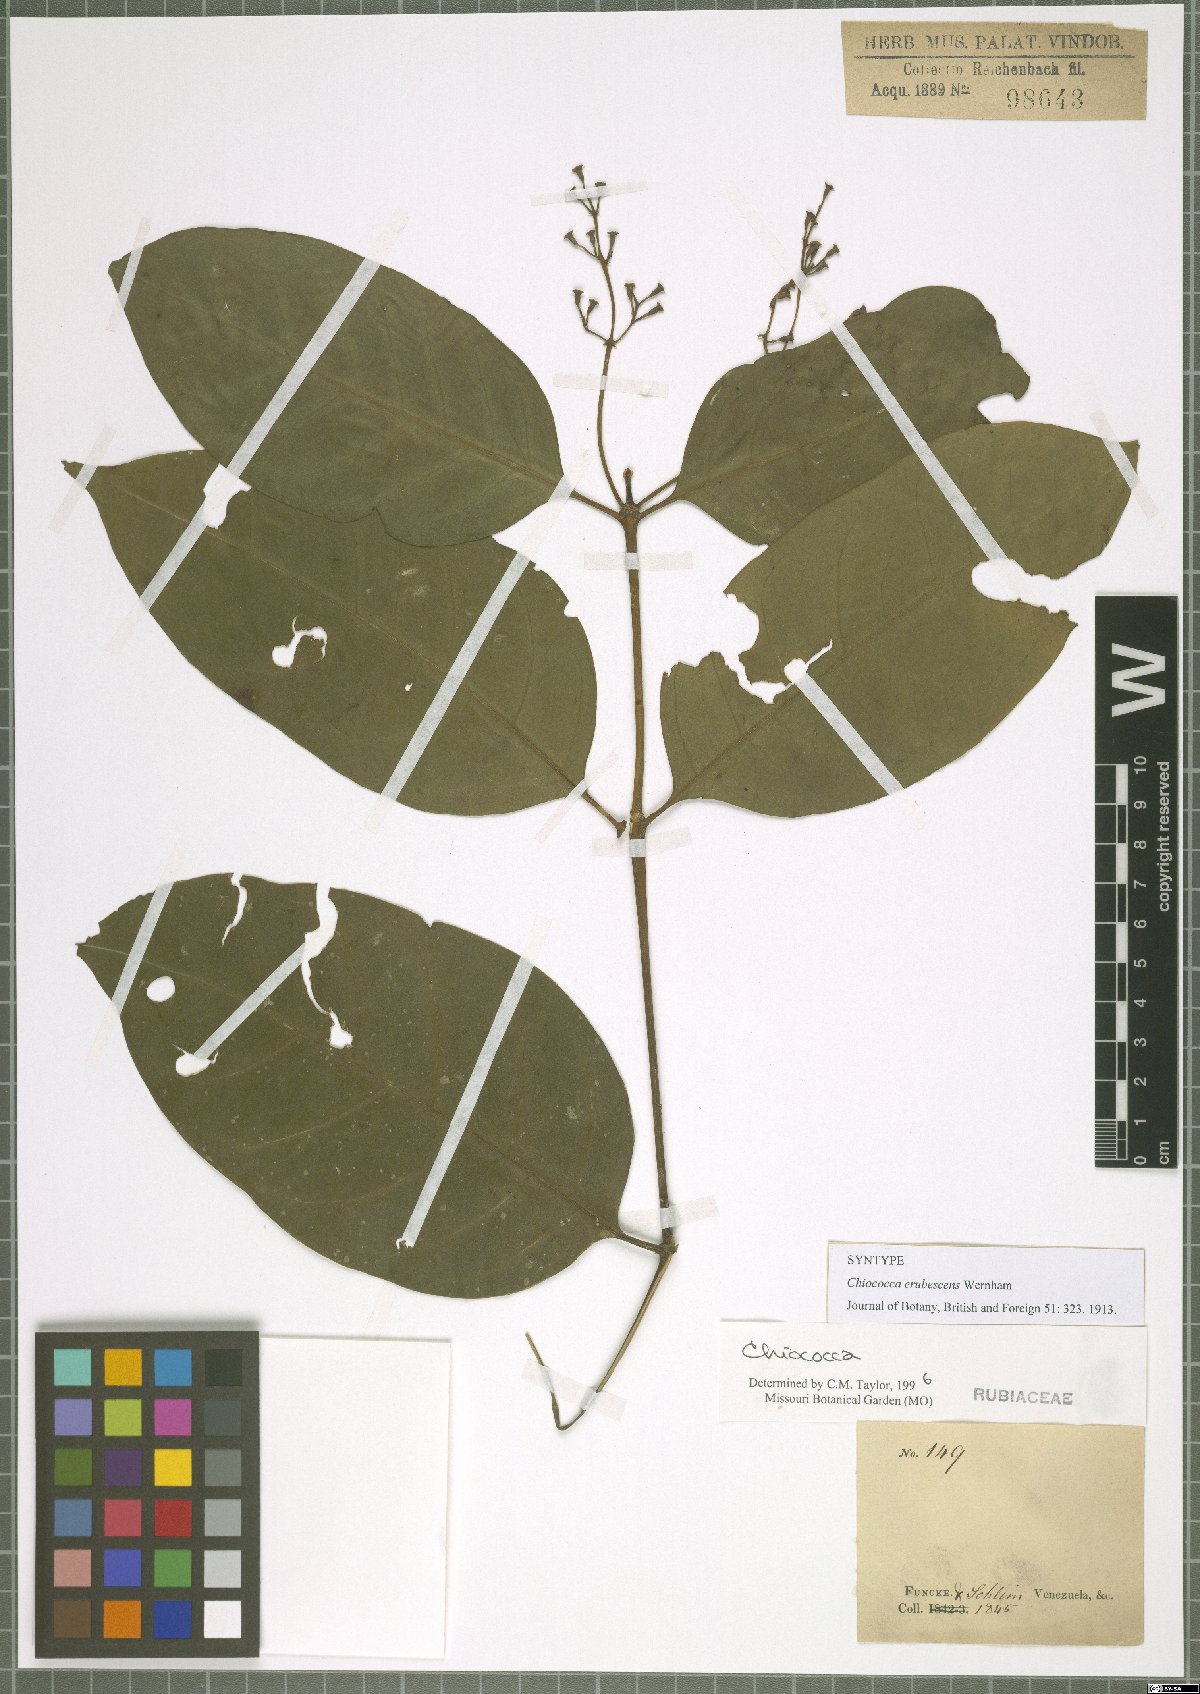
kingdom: Plantae
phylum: Tracheophyta
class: Magnoliopsida
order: Gentianales
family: Rubiaceae
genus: Chiococca
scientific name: Chiococca nitida
